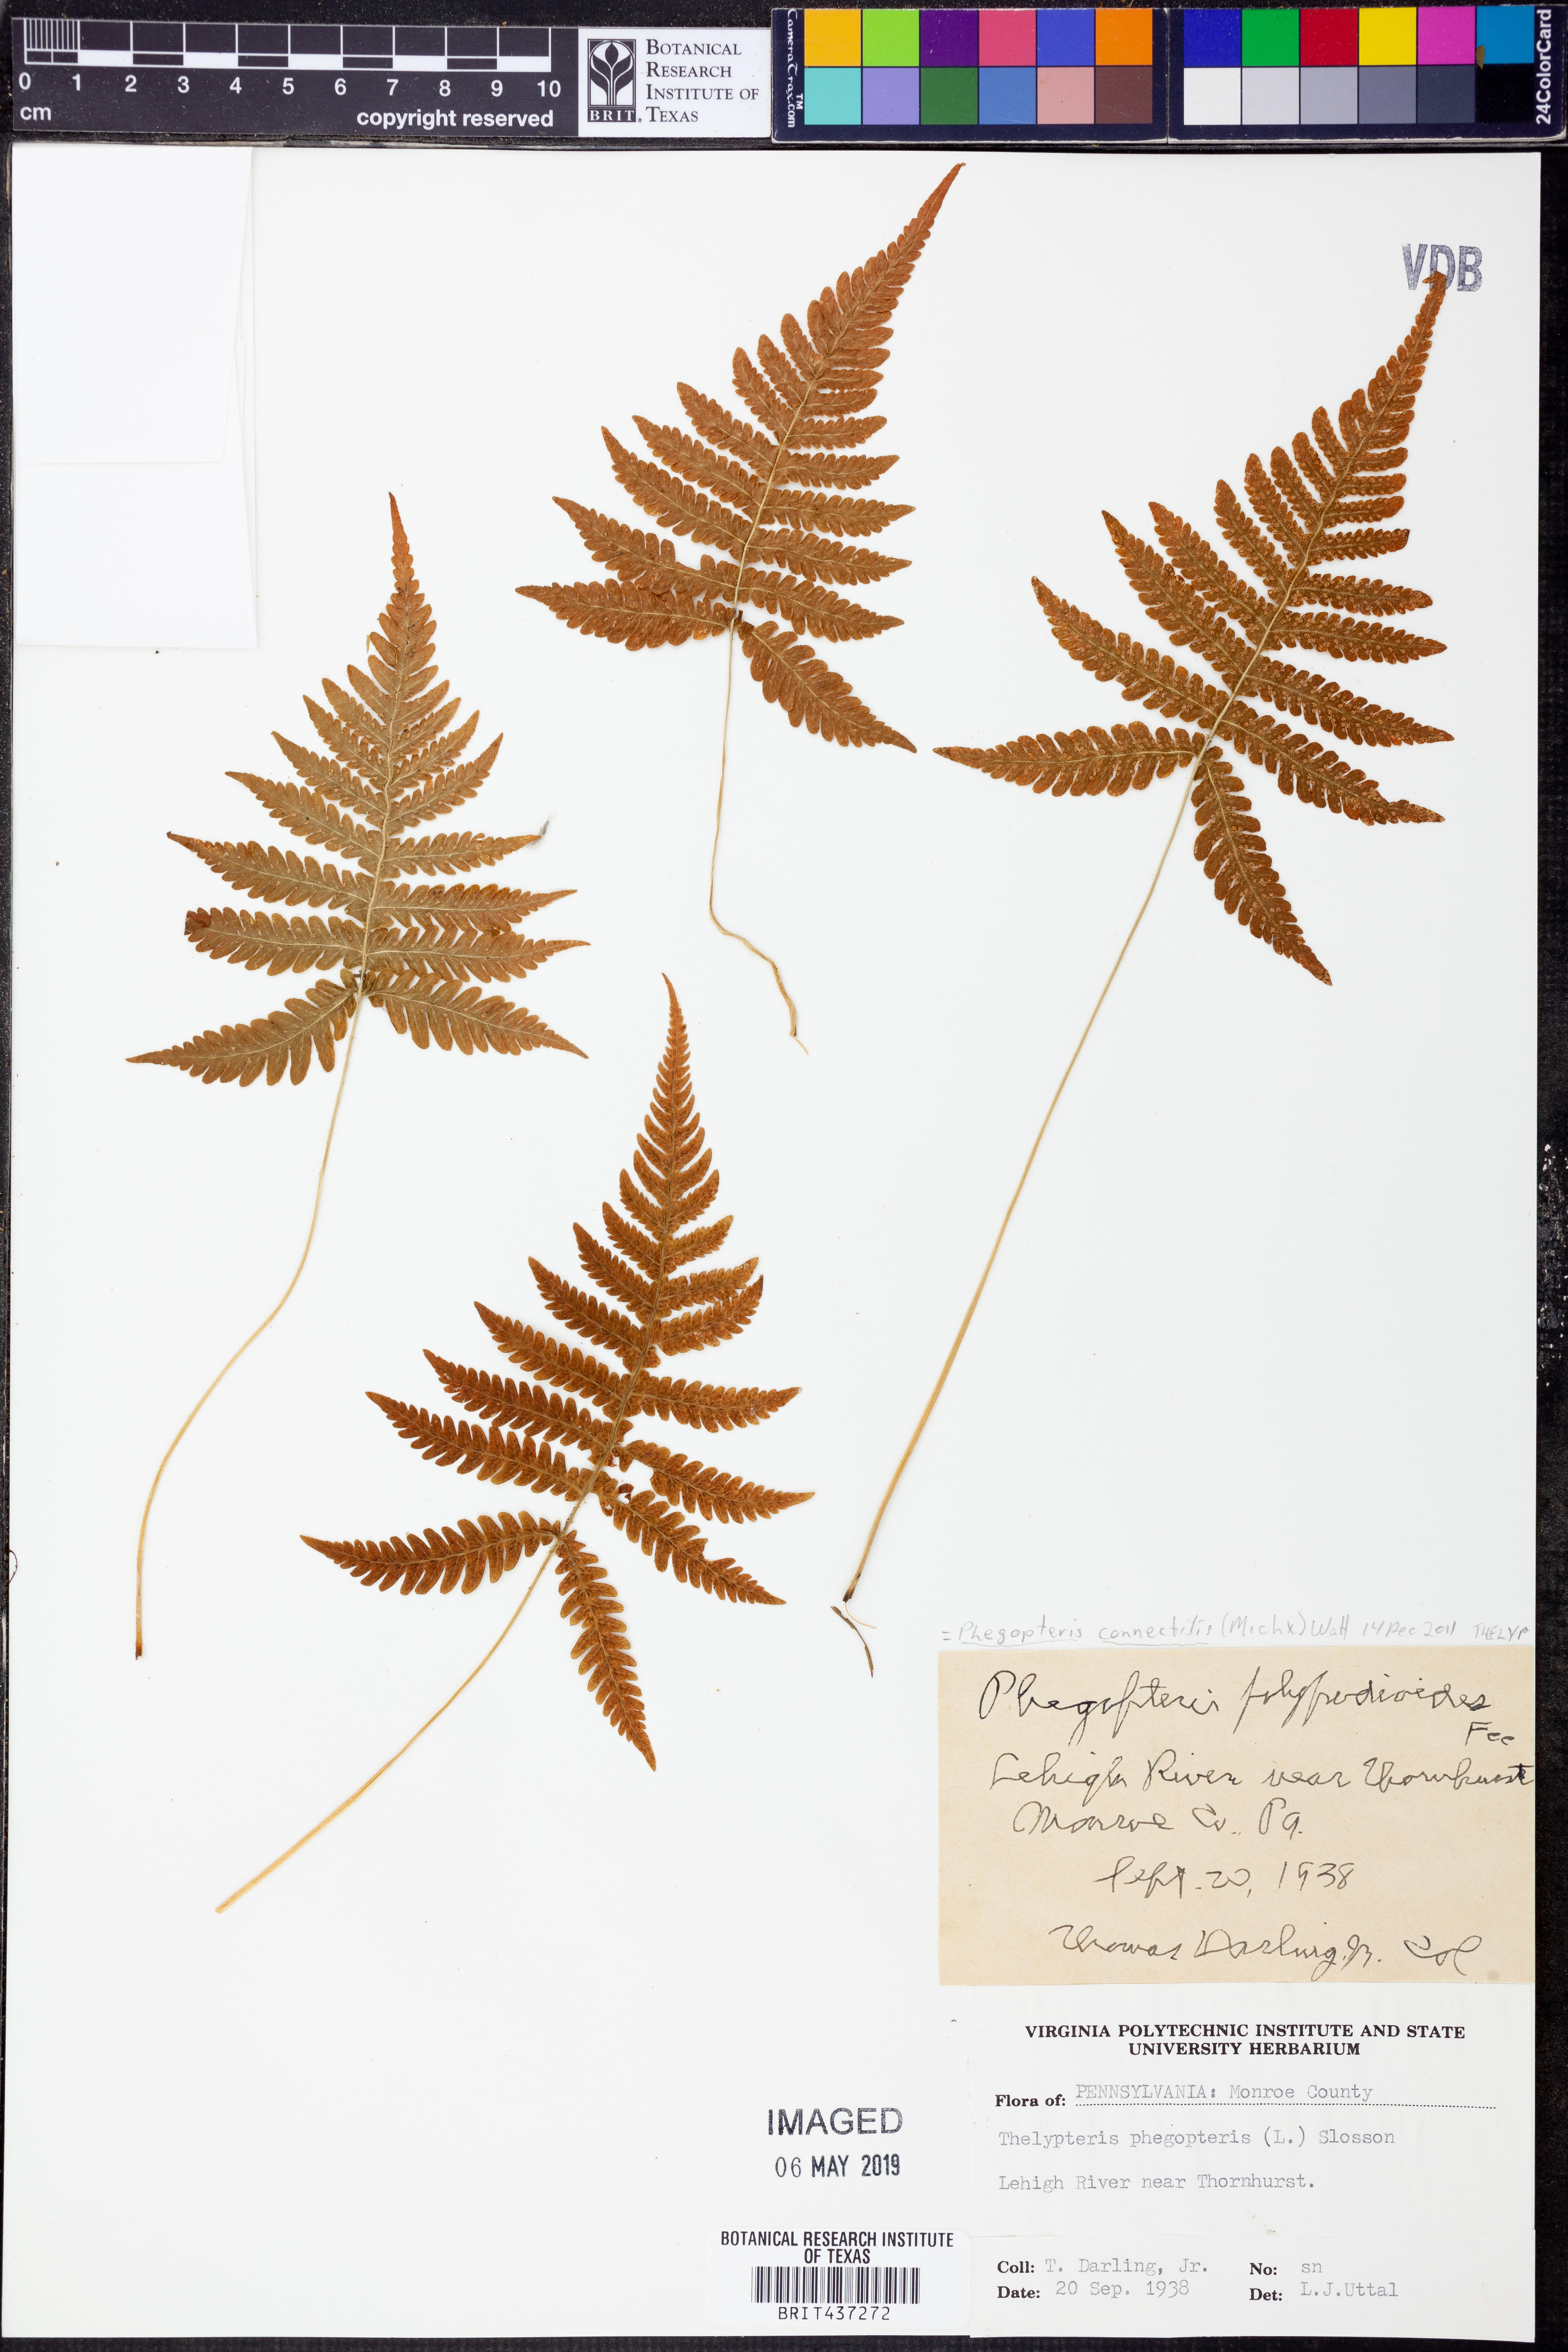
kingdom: Plantae
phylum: Tracheophyta
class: Polypodiopsida
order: Polypodiales
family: Thelypteridaceae
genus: Phegopteris
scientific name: Phegopteris connectilis
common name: Beech fern
